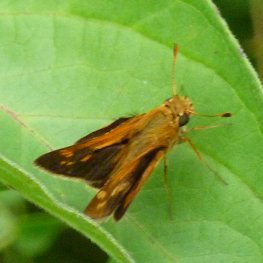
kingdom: Animalia
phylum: Arthropoda
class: Insecta
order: Lepidoptera
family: Hesperiidae
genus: Polites
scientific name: Polites themistocles
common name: Tawny-edged Skipper
